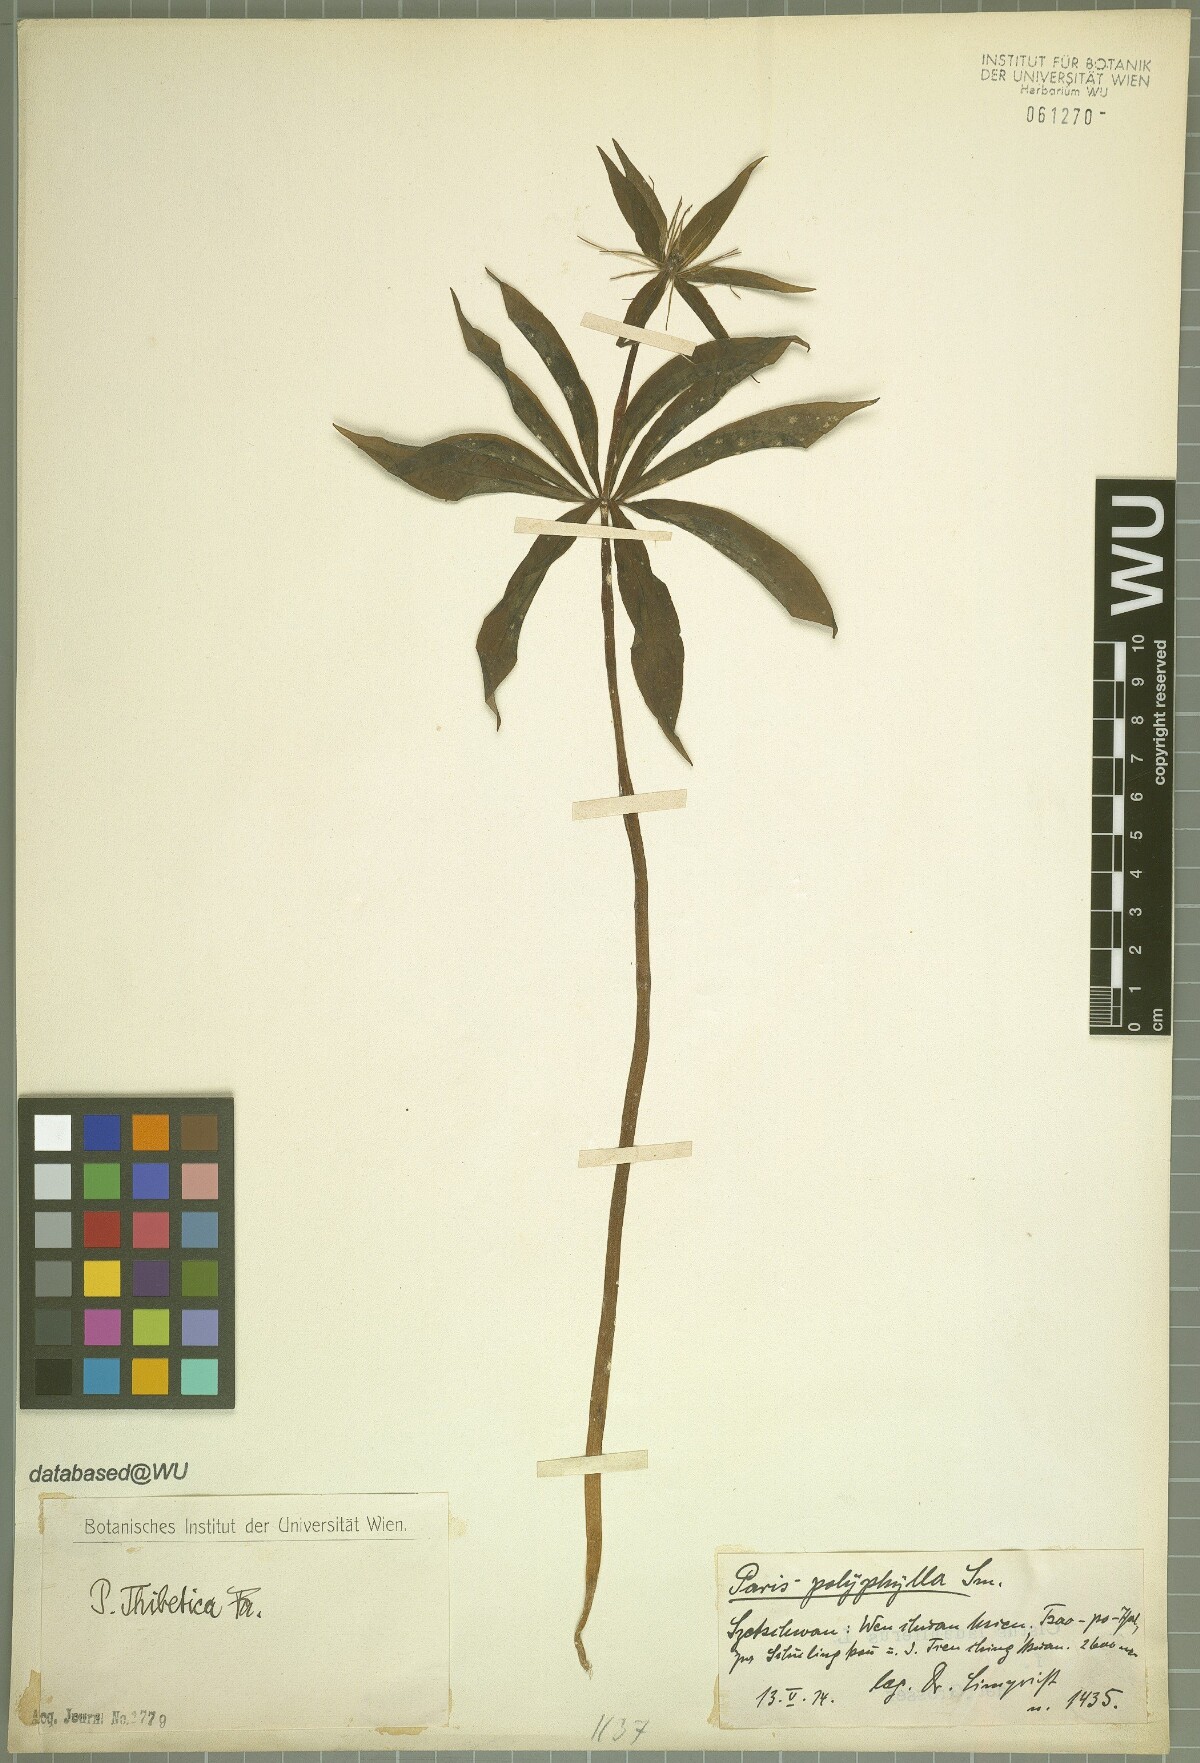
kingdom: Plantae
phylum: Tracheophyta
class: Liliopsida
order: Liliales
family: Melanthiaceae
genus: Paris
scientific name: Paris thibetica
